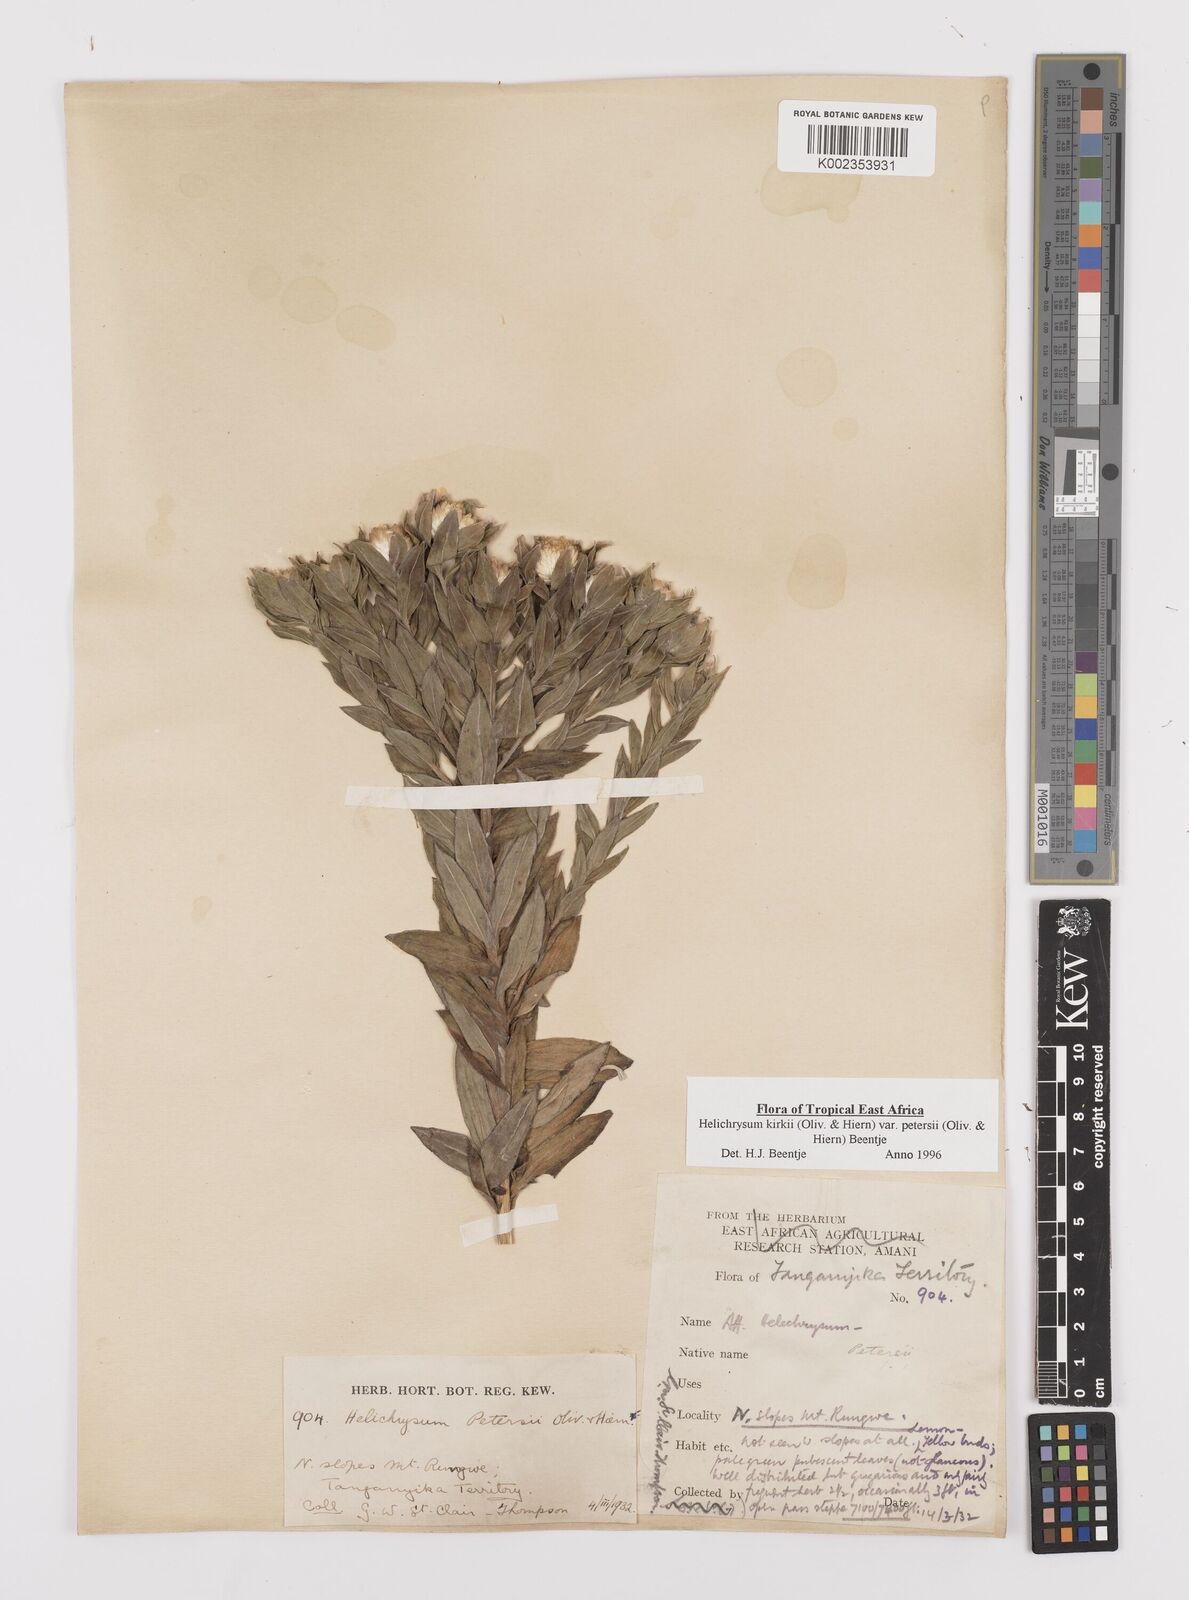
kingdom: Plantae
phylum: Tracheophyta
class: Magnoliopsida
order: Asterales
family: Asteraceae
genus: Helichrysum
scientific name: Helichrysum kirkii
